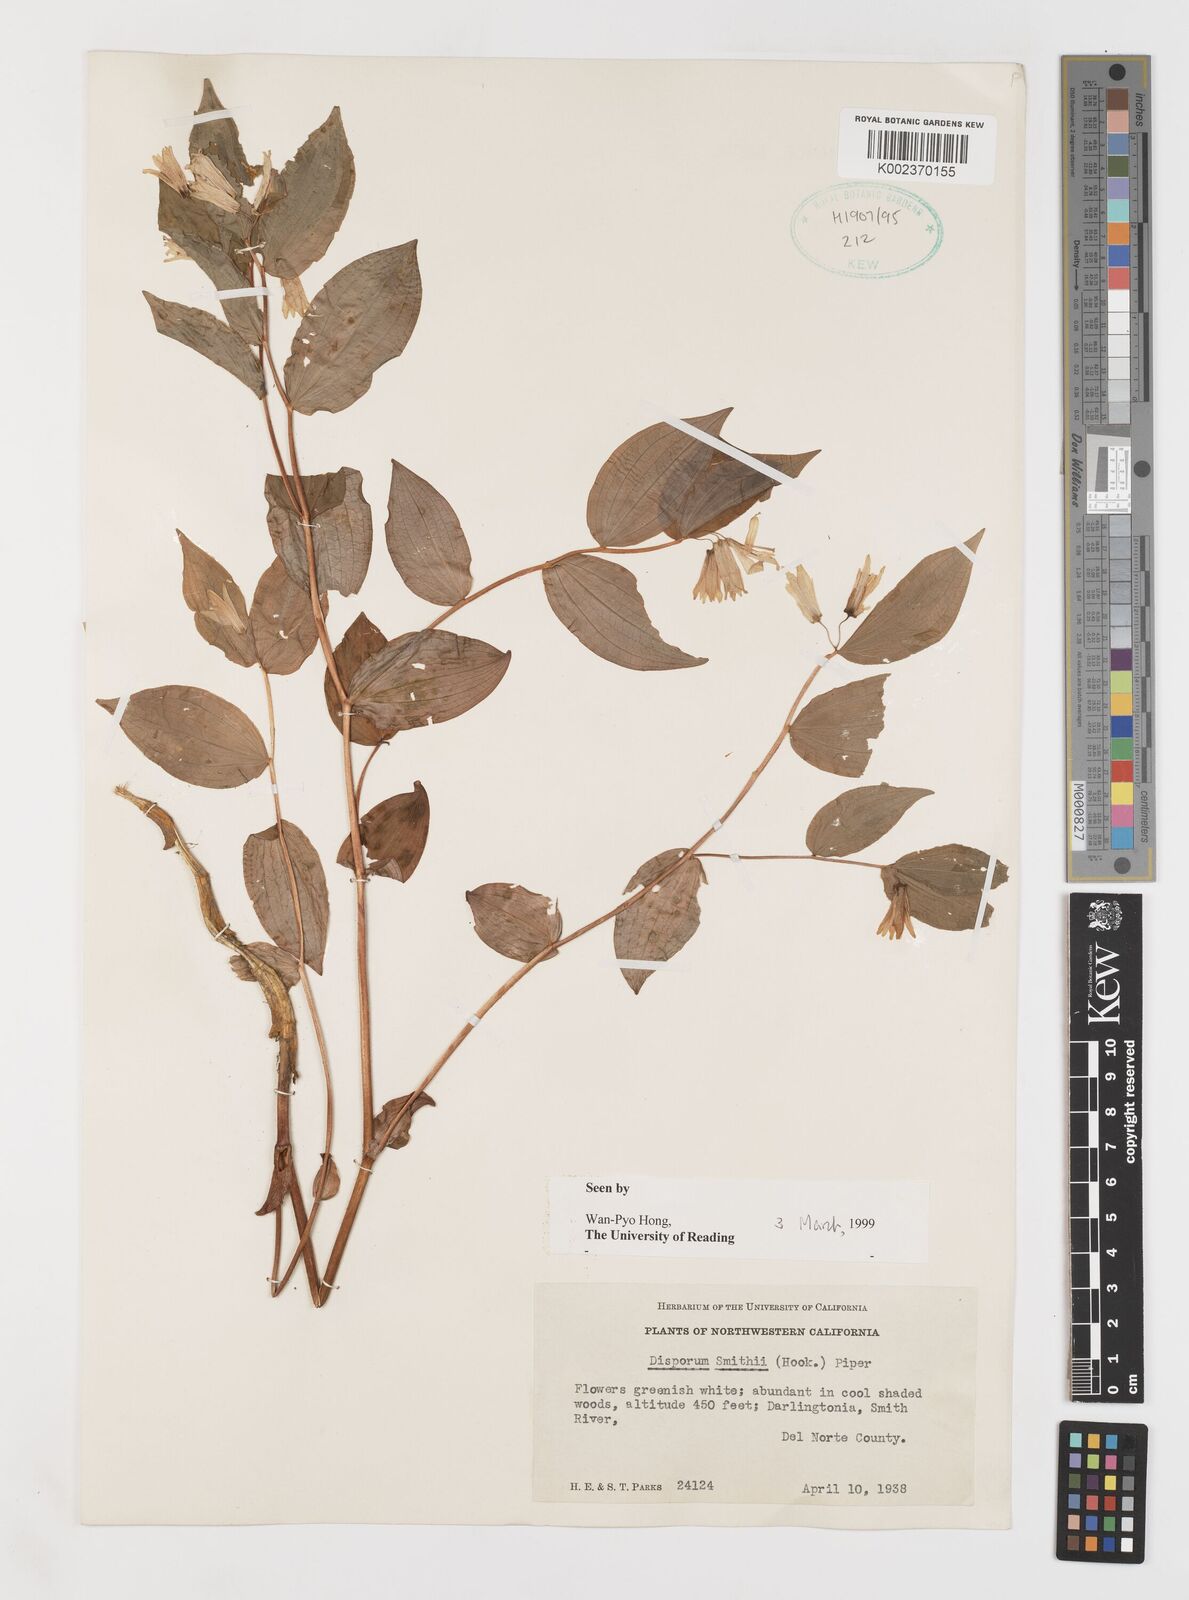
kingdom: Plantae
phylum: Tracheophyta
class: Liliopsida
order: Liliales
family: Liliaceae
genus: Prosartes
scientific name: Prosartes smithii
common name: Fairy-lantern
